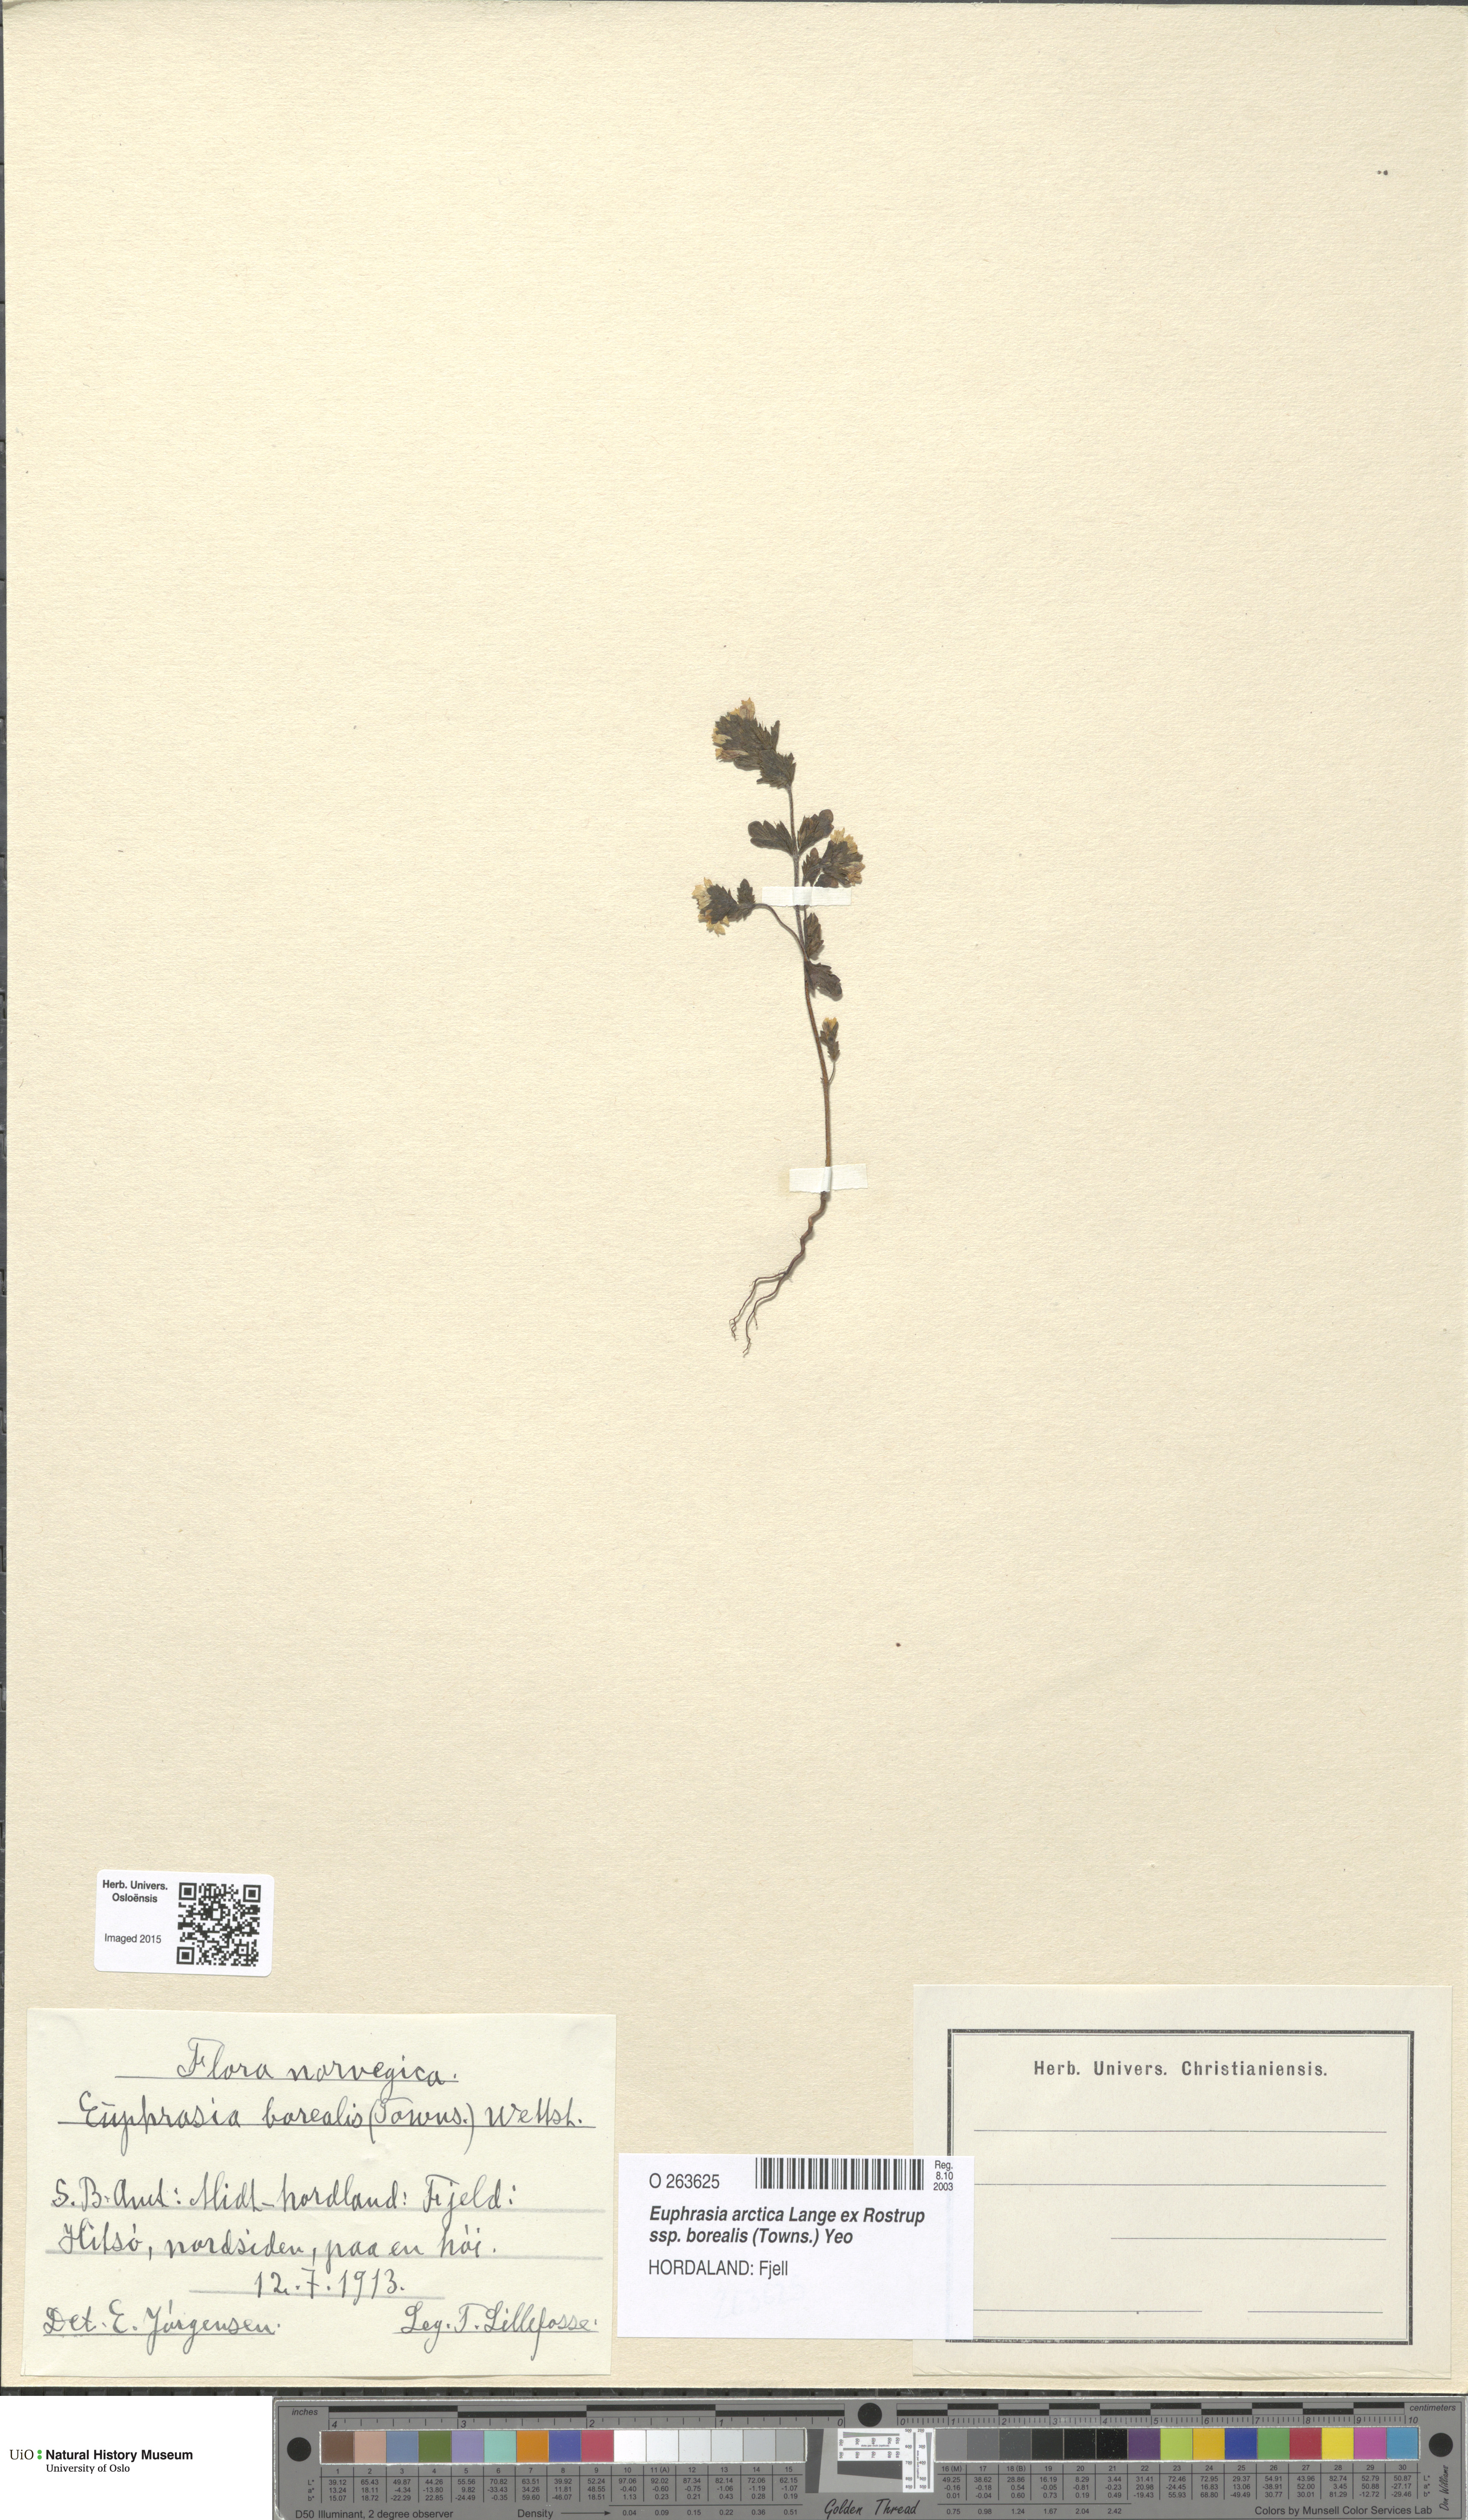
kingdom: Plantae
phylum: Tracheophyta
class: Magnoliopsida
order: Lamiales
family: Orobanchaceae
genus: Euphrasia
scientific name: Euphrasia arctica
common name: An eyebright
